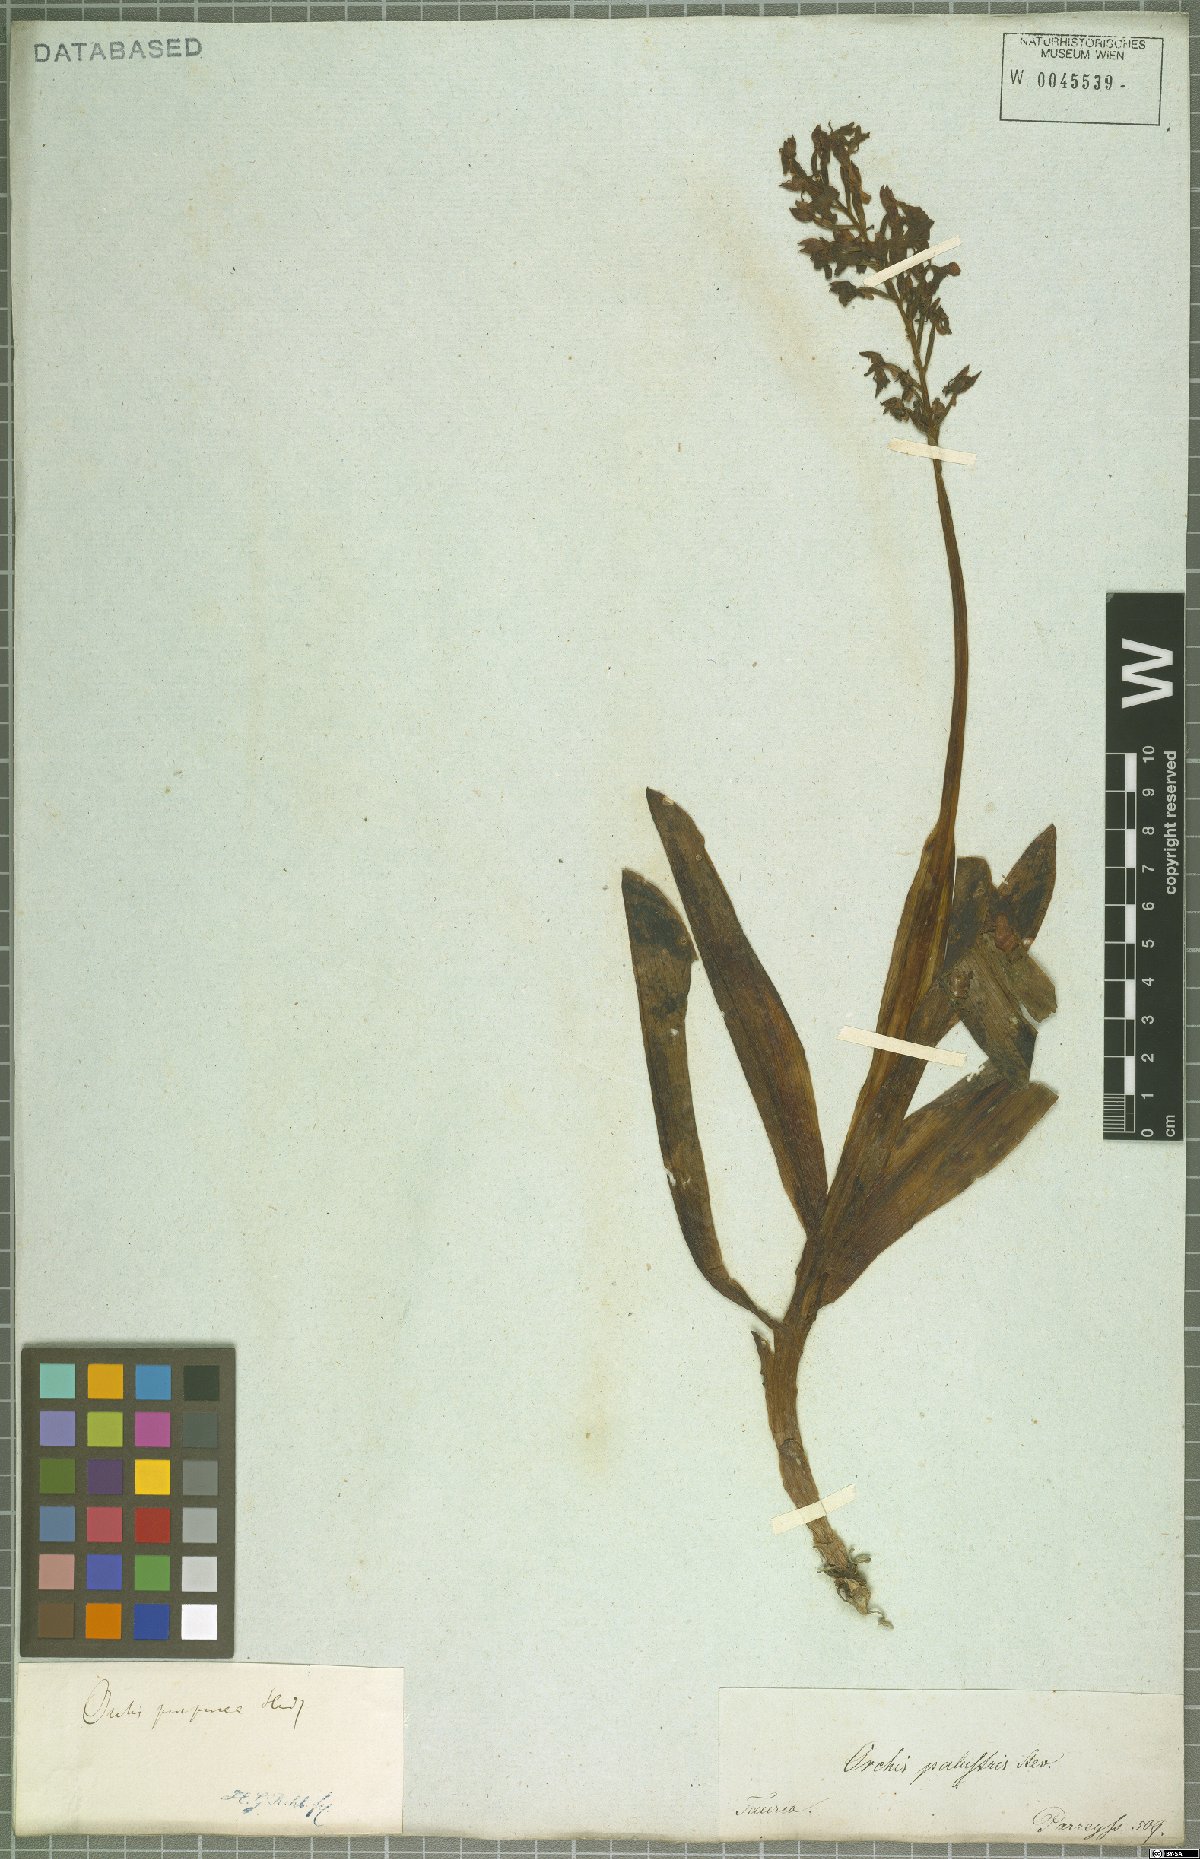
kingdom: Plantae
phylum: Tracheophyta
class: Liliopsida
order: Asparagales
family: Orchidaceae
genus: Orchis
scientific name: Orchis purpurea
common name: Lady orchid
